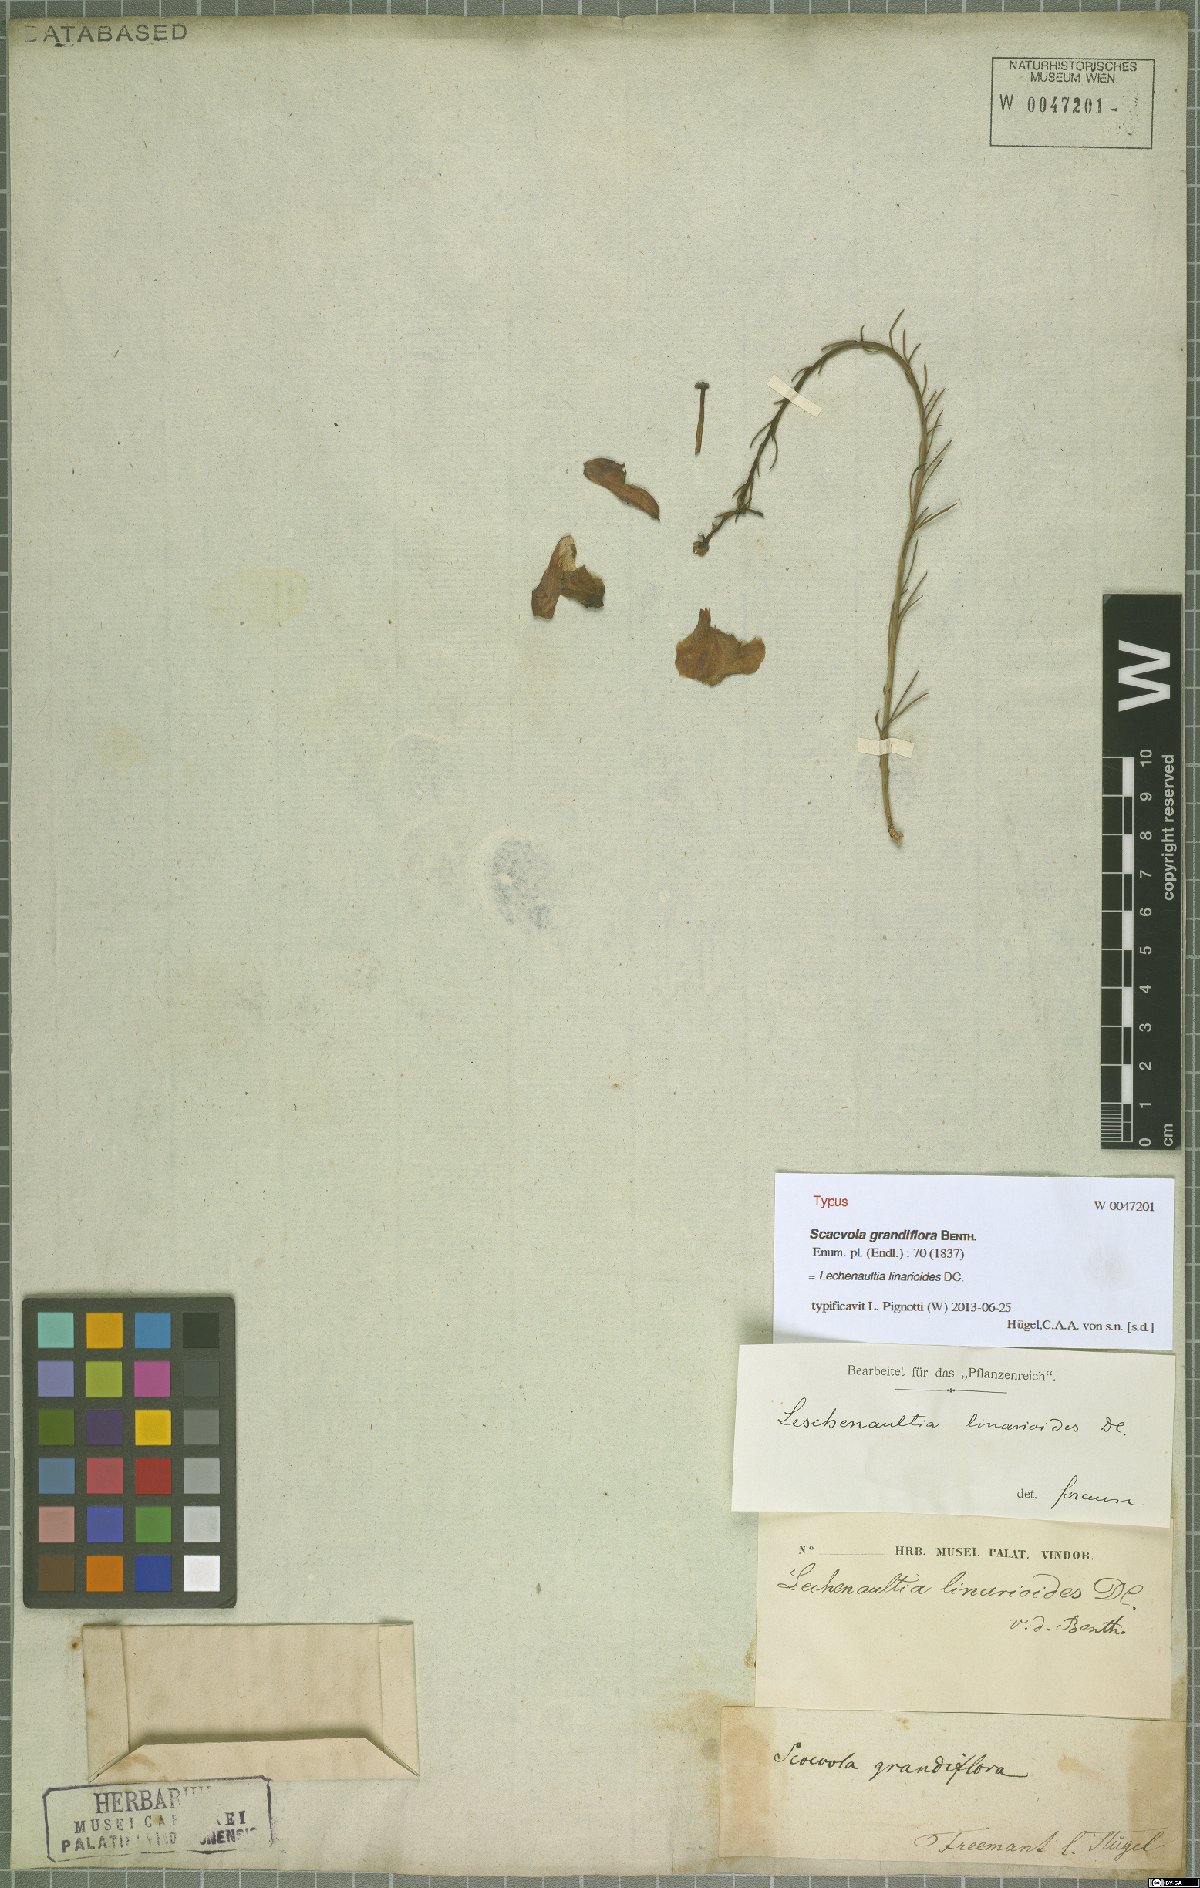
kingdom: Plantae
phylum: Tracheophyta
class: Magnoliopsida
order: Asterales
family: Goodeniaceae
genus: Lechenaultia
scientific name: Lechenaultia linarioides
